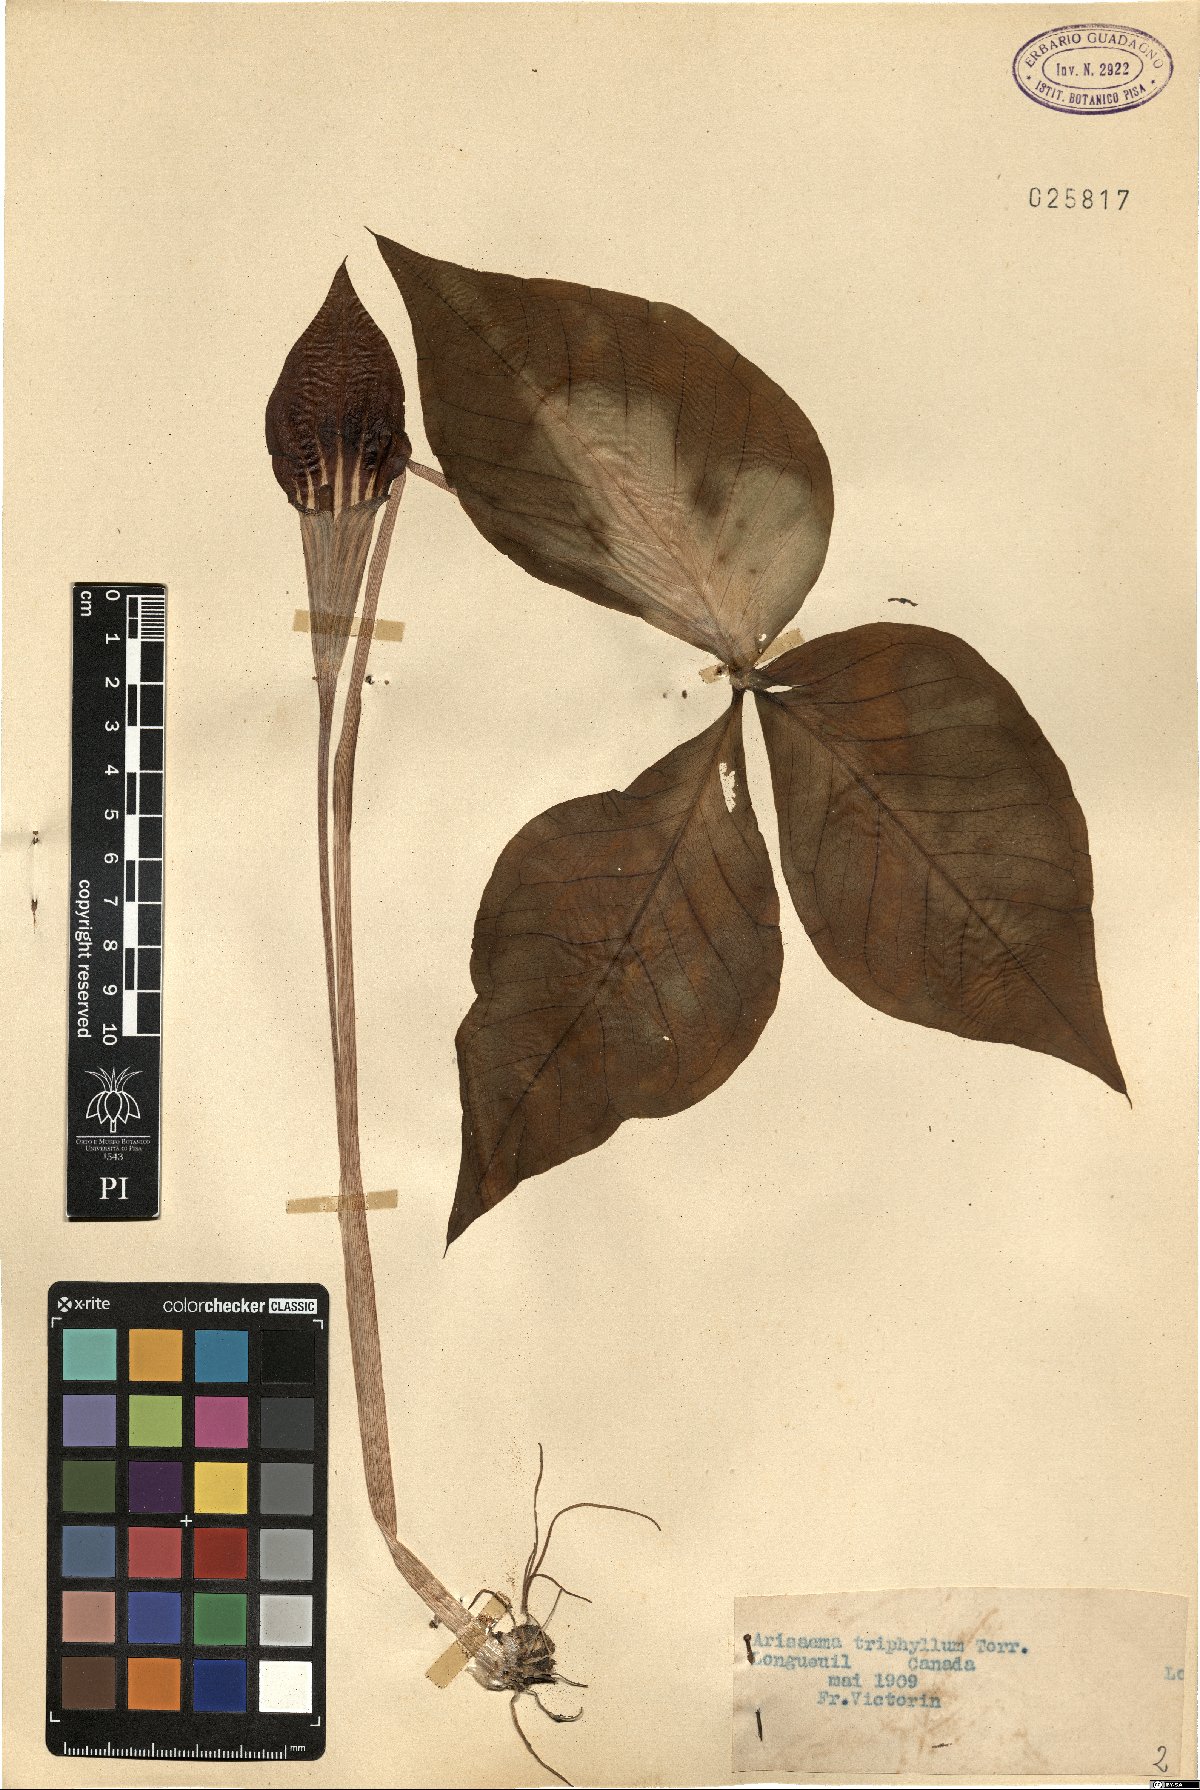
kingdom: Plantae
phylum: Tracheophyta
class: Liliopsida
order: Alismatales
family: Araceae
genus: Arisaema
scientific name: Arisaema triphyllum
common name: Jack-in-the-pulpit
